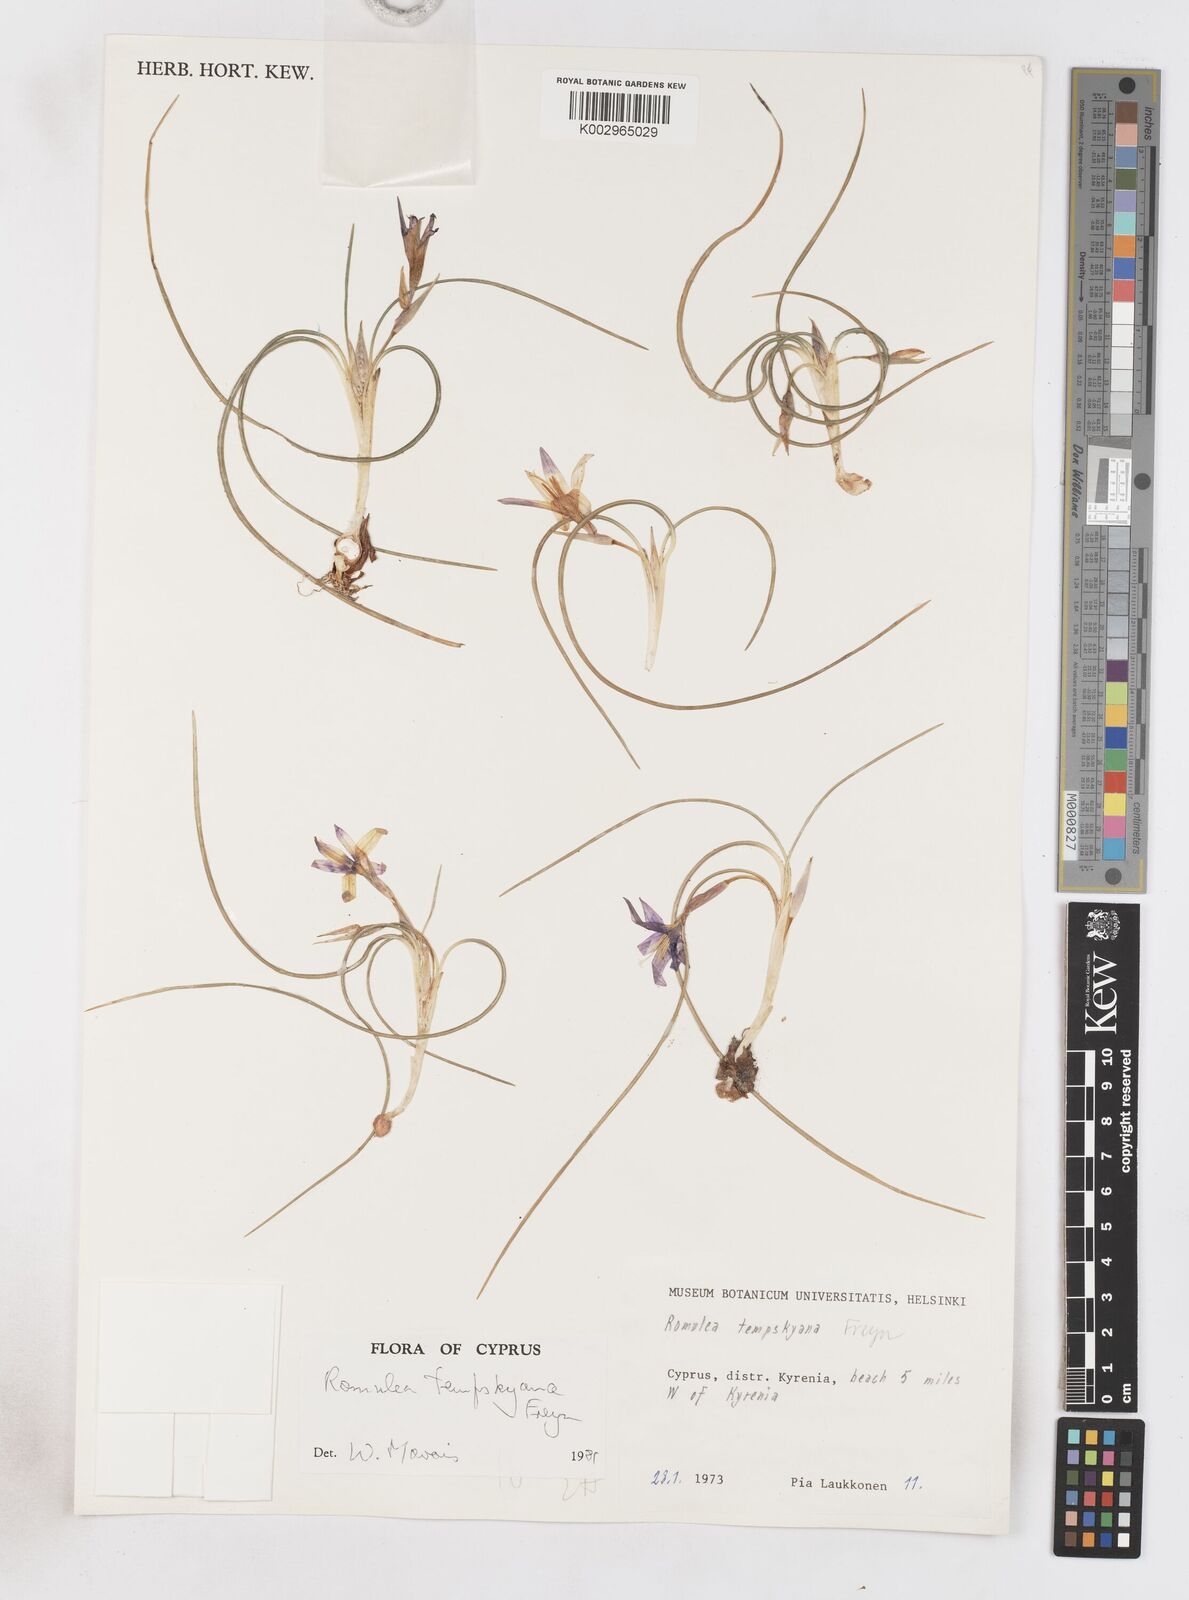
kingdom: Plantae
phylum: Tracheophyta
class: Liliopsida
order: Asparagales
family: Iridaceae
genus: Romulea
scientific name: Romulea tempskyana
